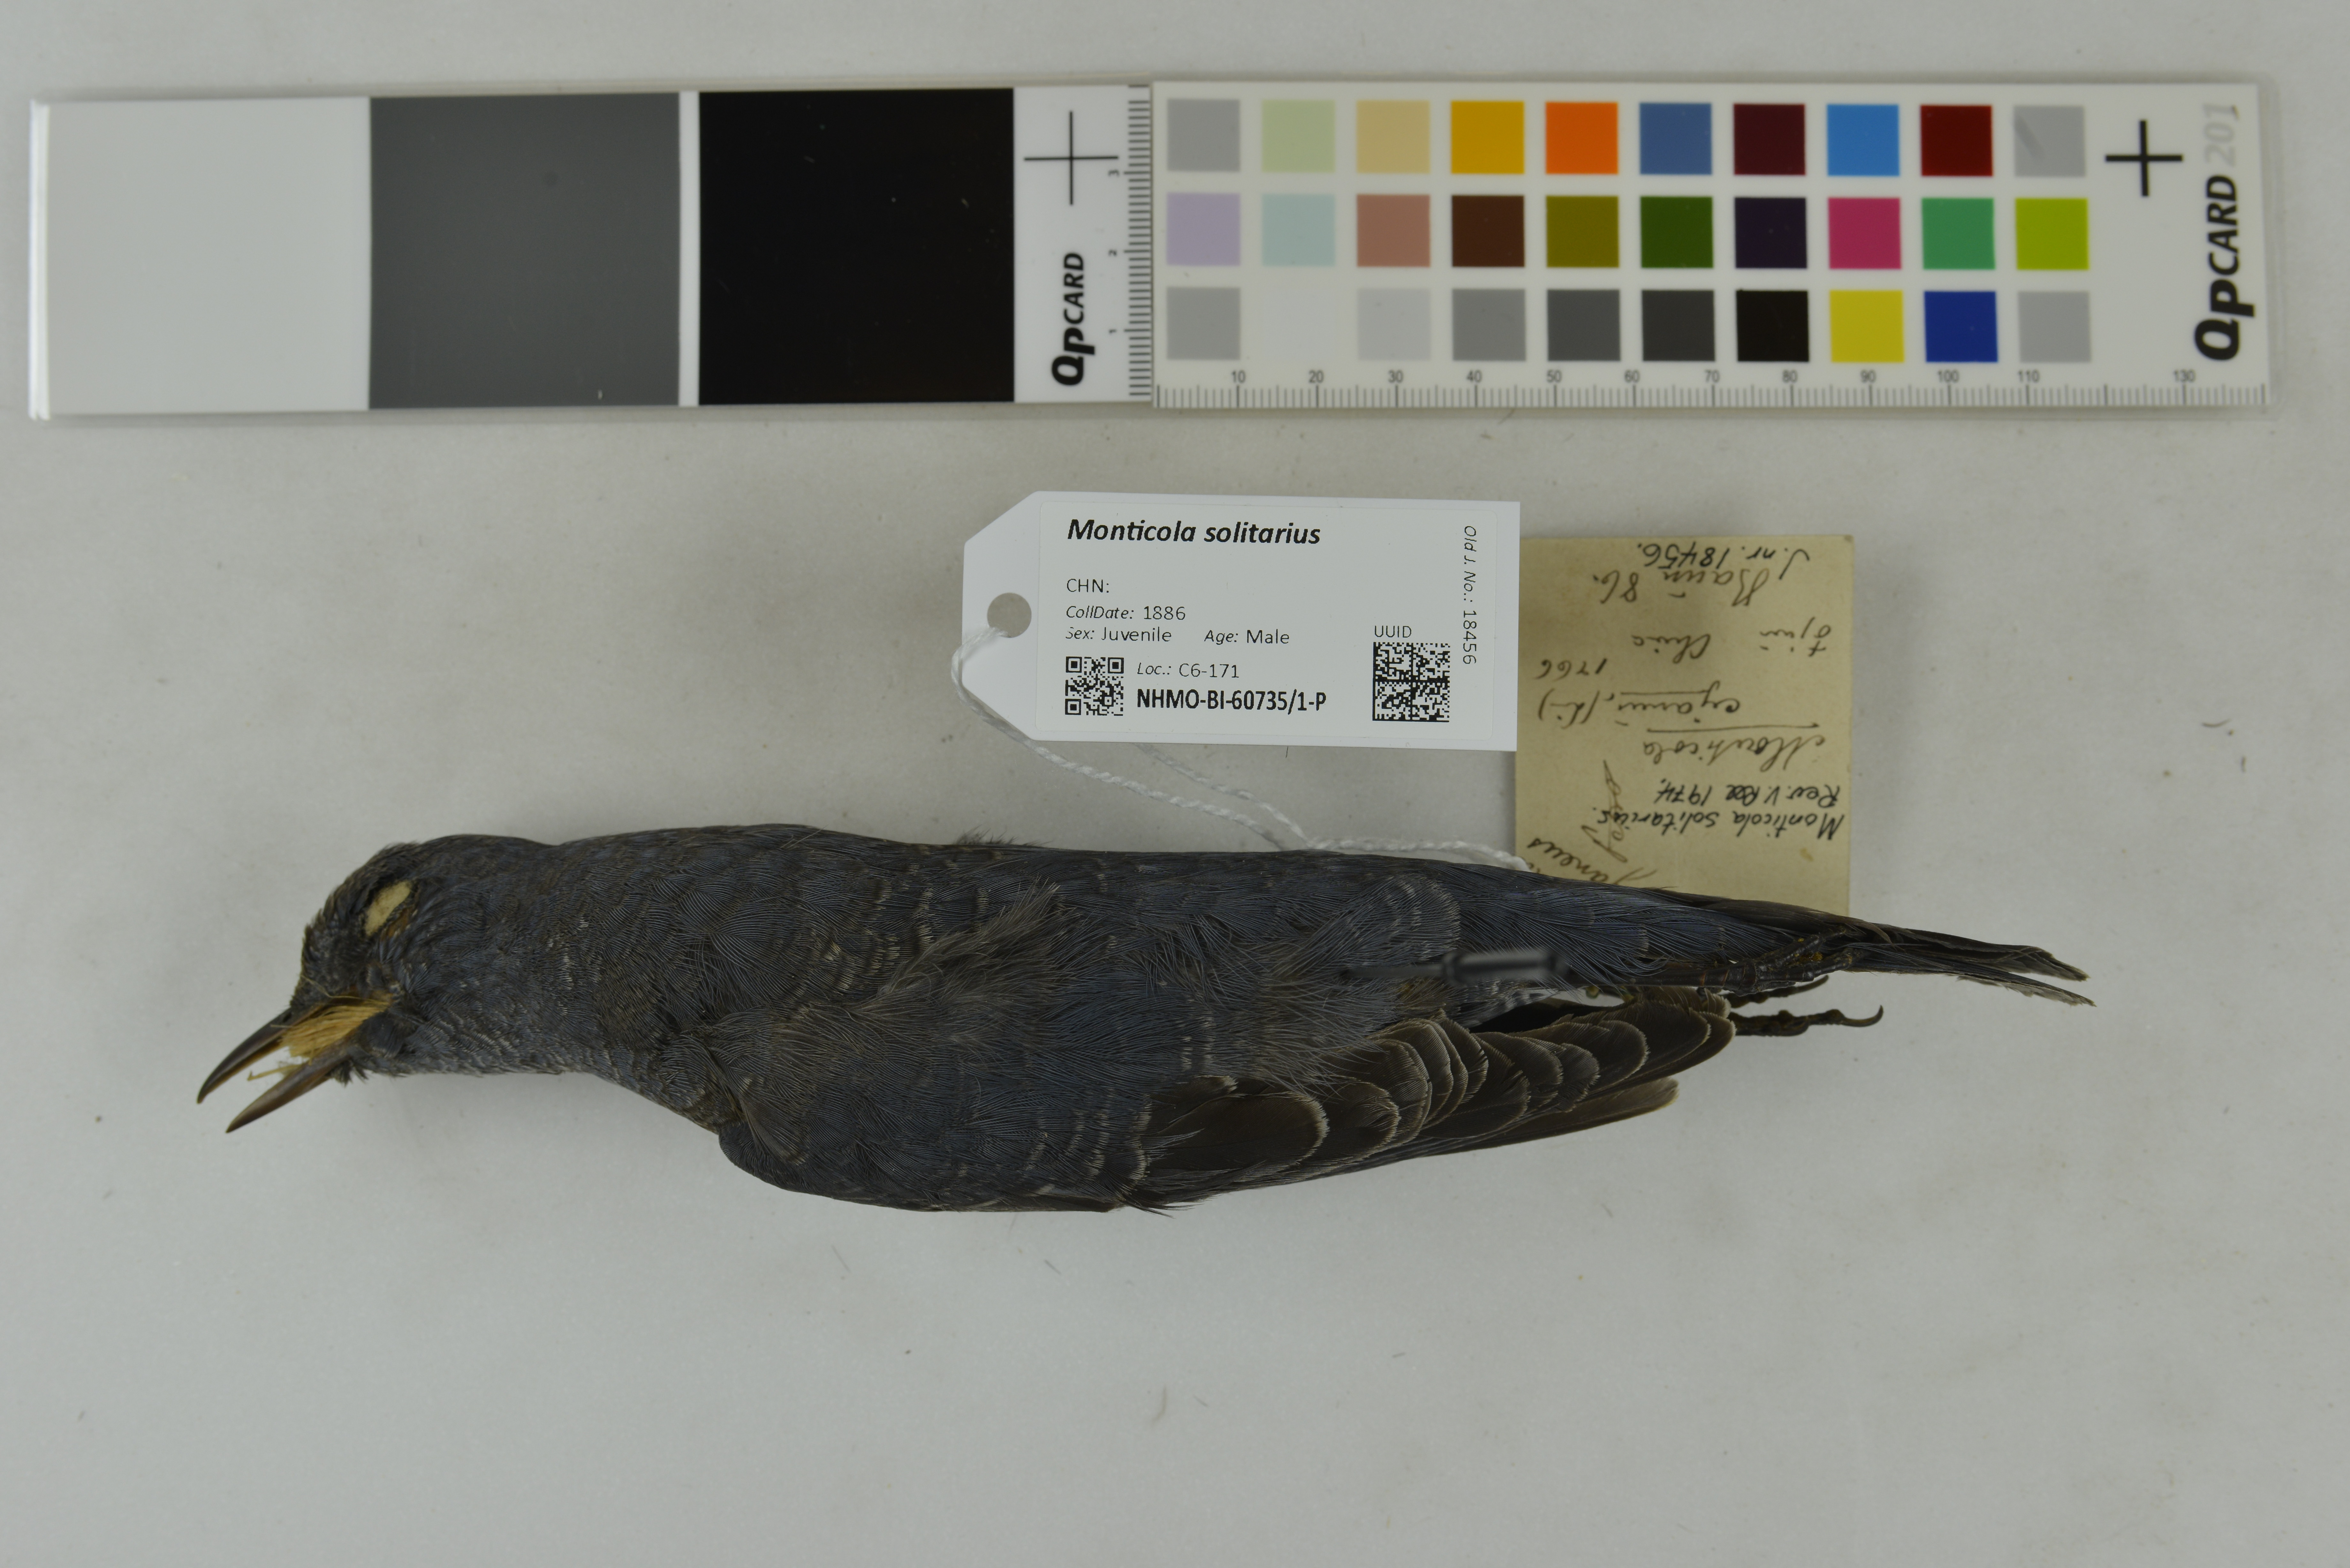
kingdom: Animalia
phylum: Chordata
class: Aves
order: Passeriformes
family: Muscicapidae
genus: Monticola
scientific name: Monticola solitarius
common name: Blue rock thrush
